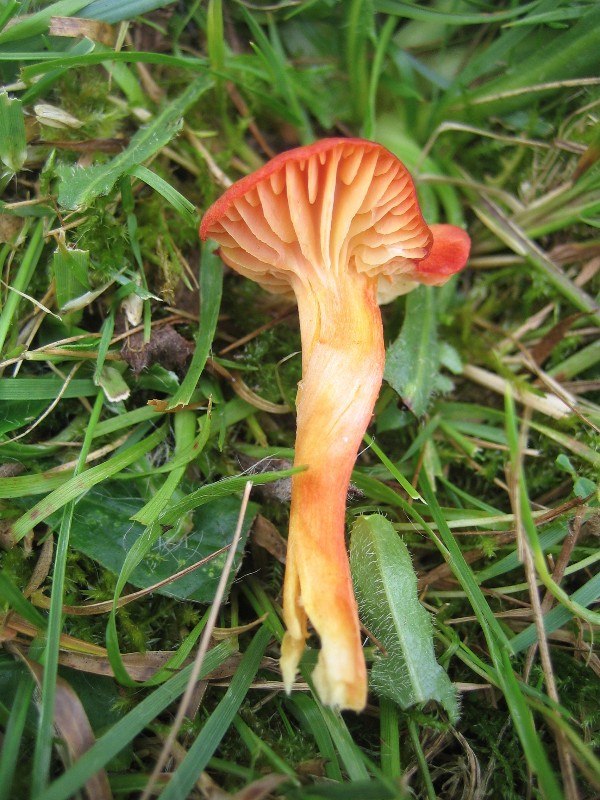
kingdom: Fungi
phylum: Basidiomycota
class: Agaricomycetes
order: Agaricales
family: Hygrophoraceae
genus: Hygrocybe
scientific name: Hygrocybe
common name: vokshat
